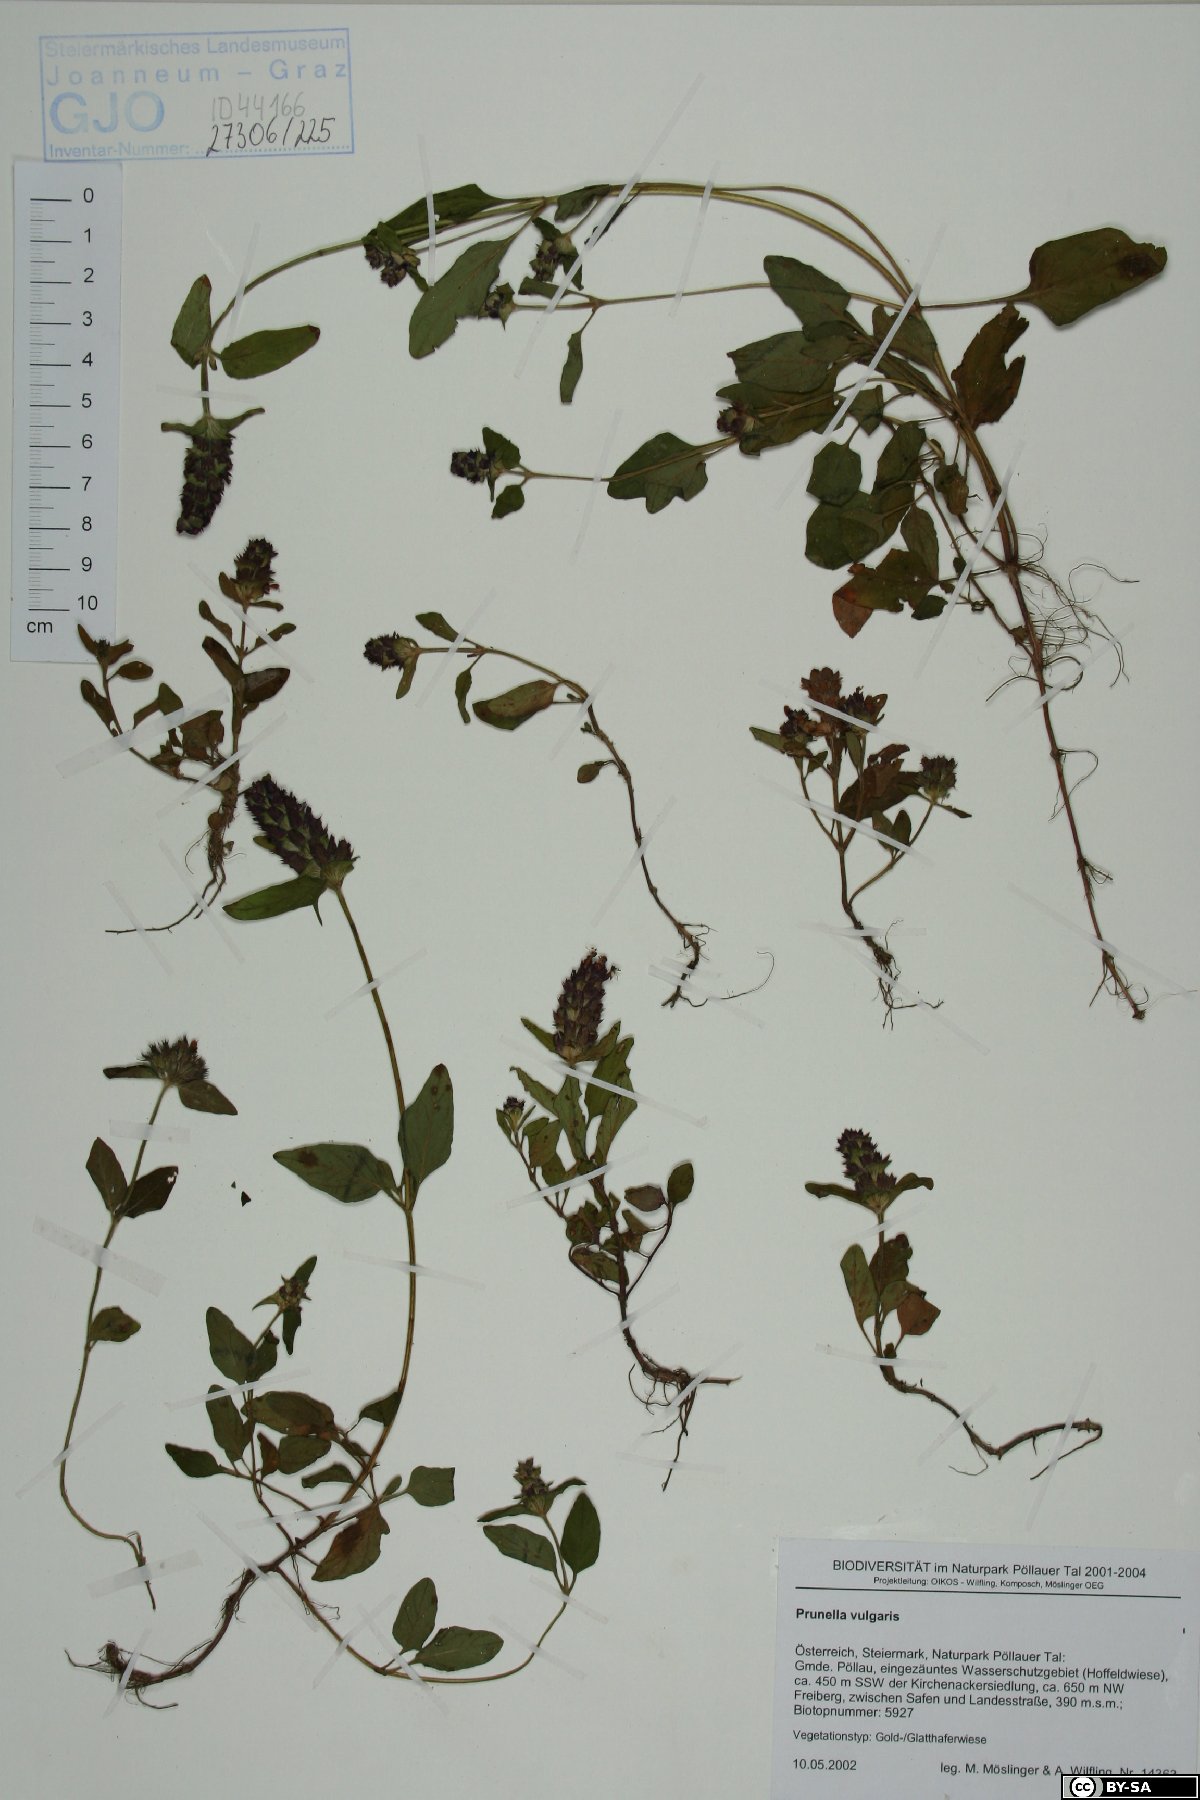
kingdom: Plantae
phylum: Tracheophyta
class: Magnoliopsida
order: Lamiales
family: Lamiaceae
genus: Prunella
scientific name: Prunella vulgaris
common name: Heal-all
